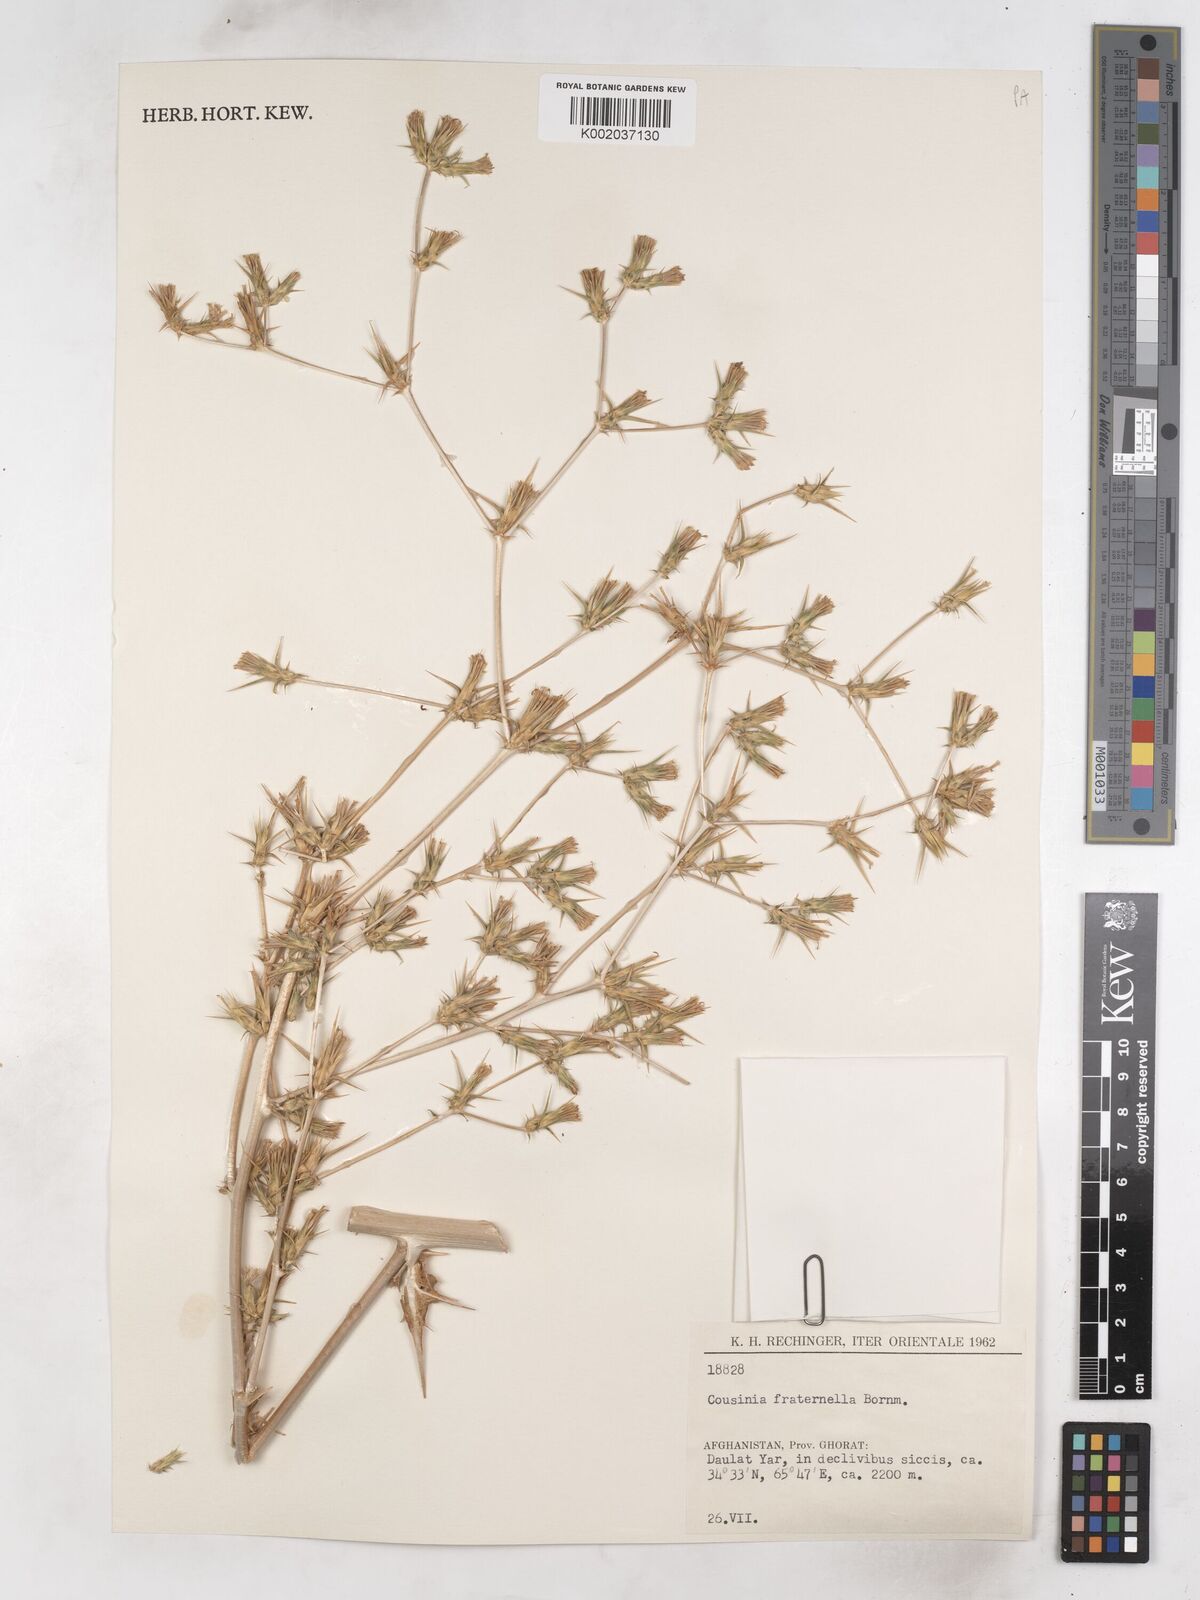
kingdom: Plantae
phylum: Tracheophyta
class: Magnoliopsida
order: Asterales
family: Asteraceae
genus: Cousinia
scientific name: Cousinia fraternella
